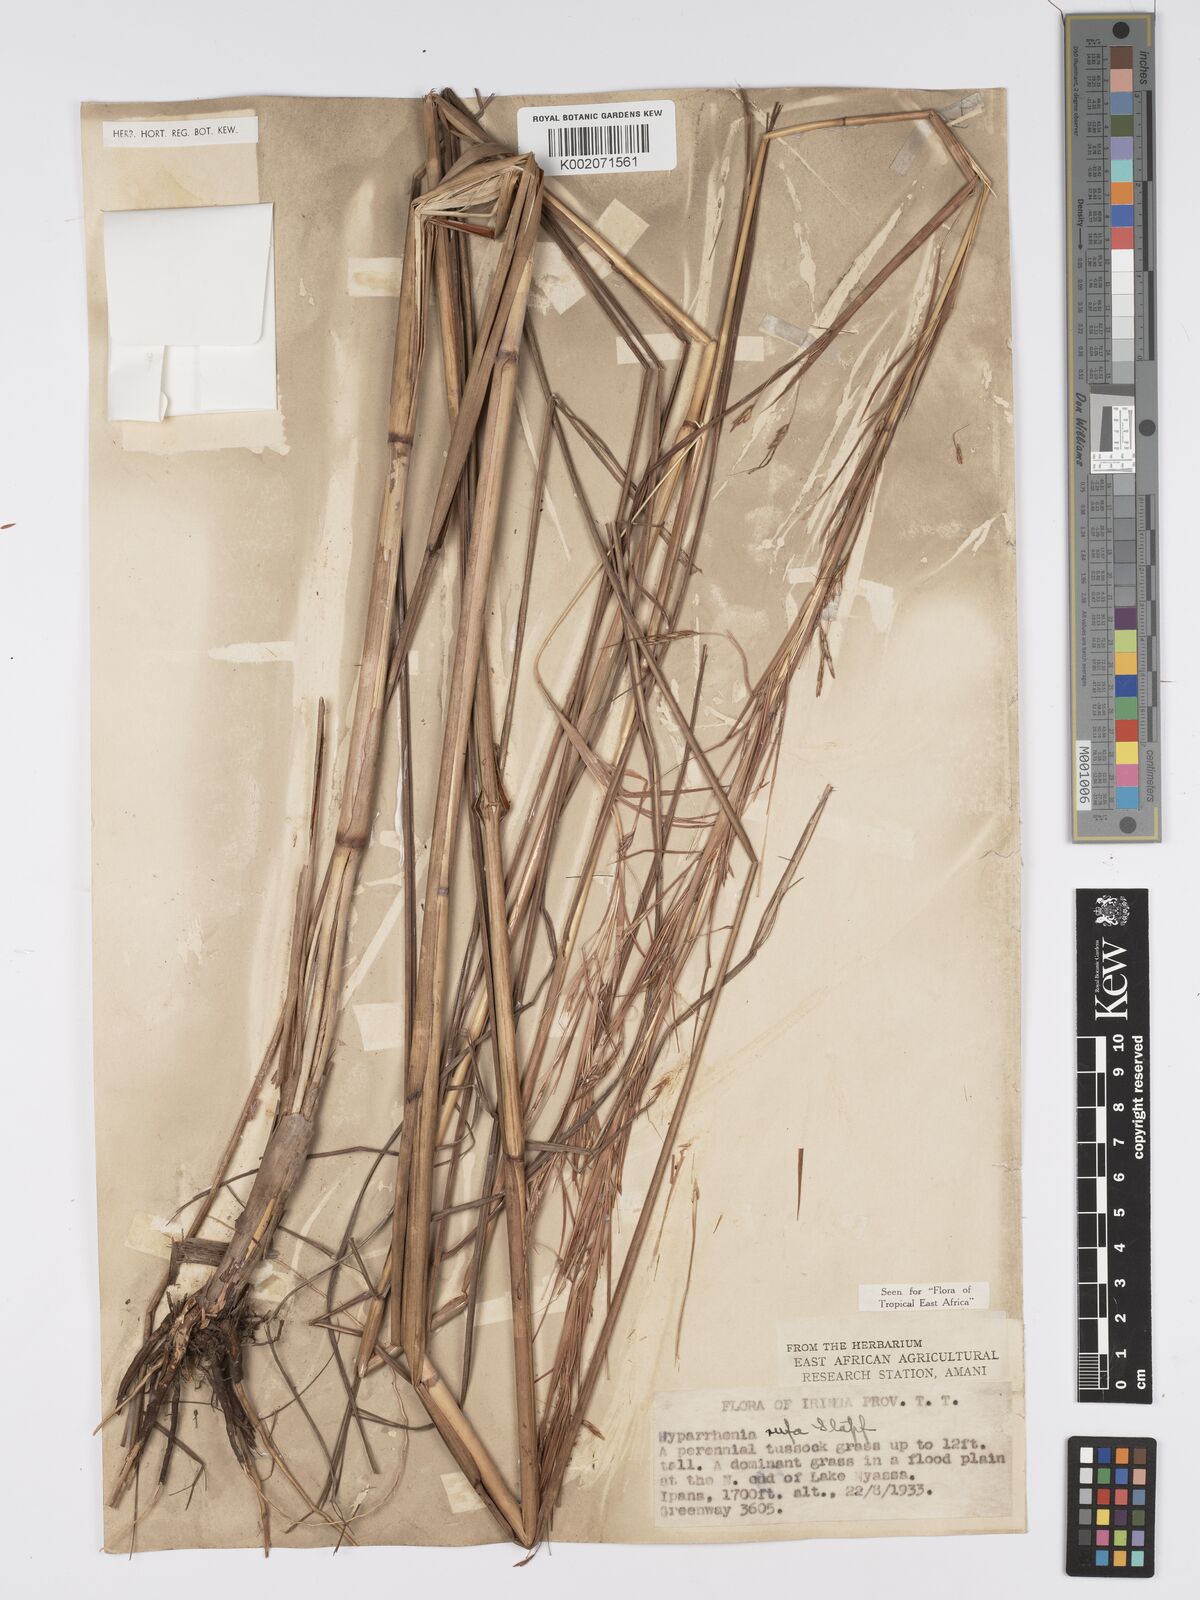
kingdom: Plantae
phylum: Tracheophyta
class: Liliopsida
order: Poales
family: Poaceae
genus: Hyparrhenia
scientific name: Hyparrhenia rufa
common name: Jaraguagrass
